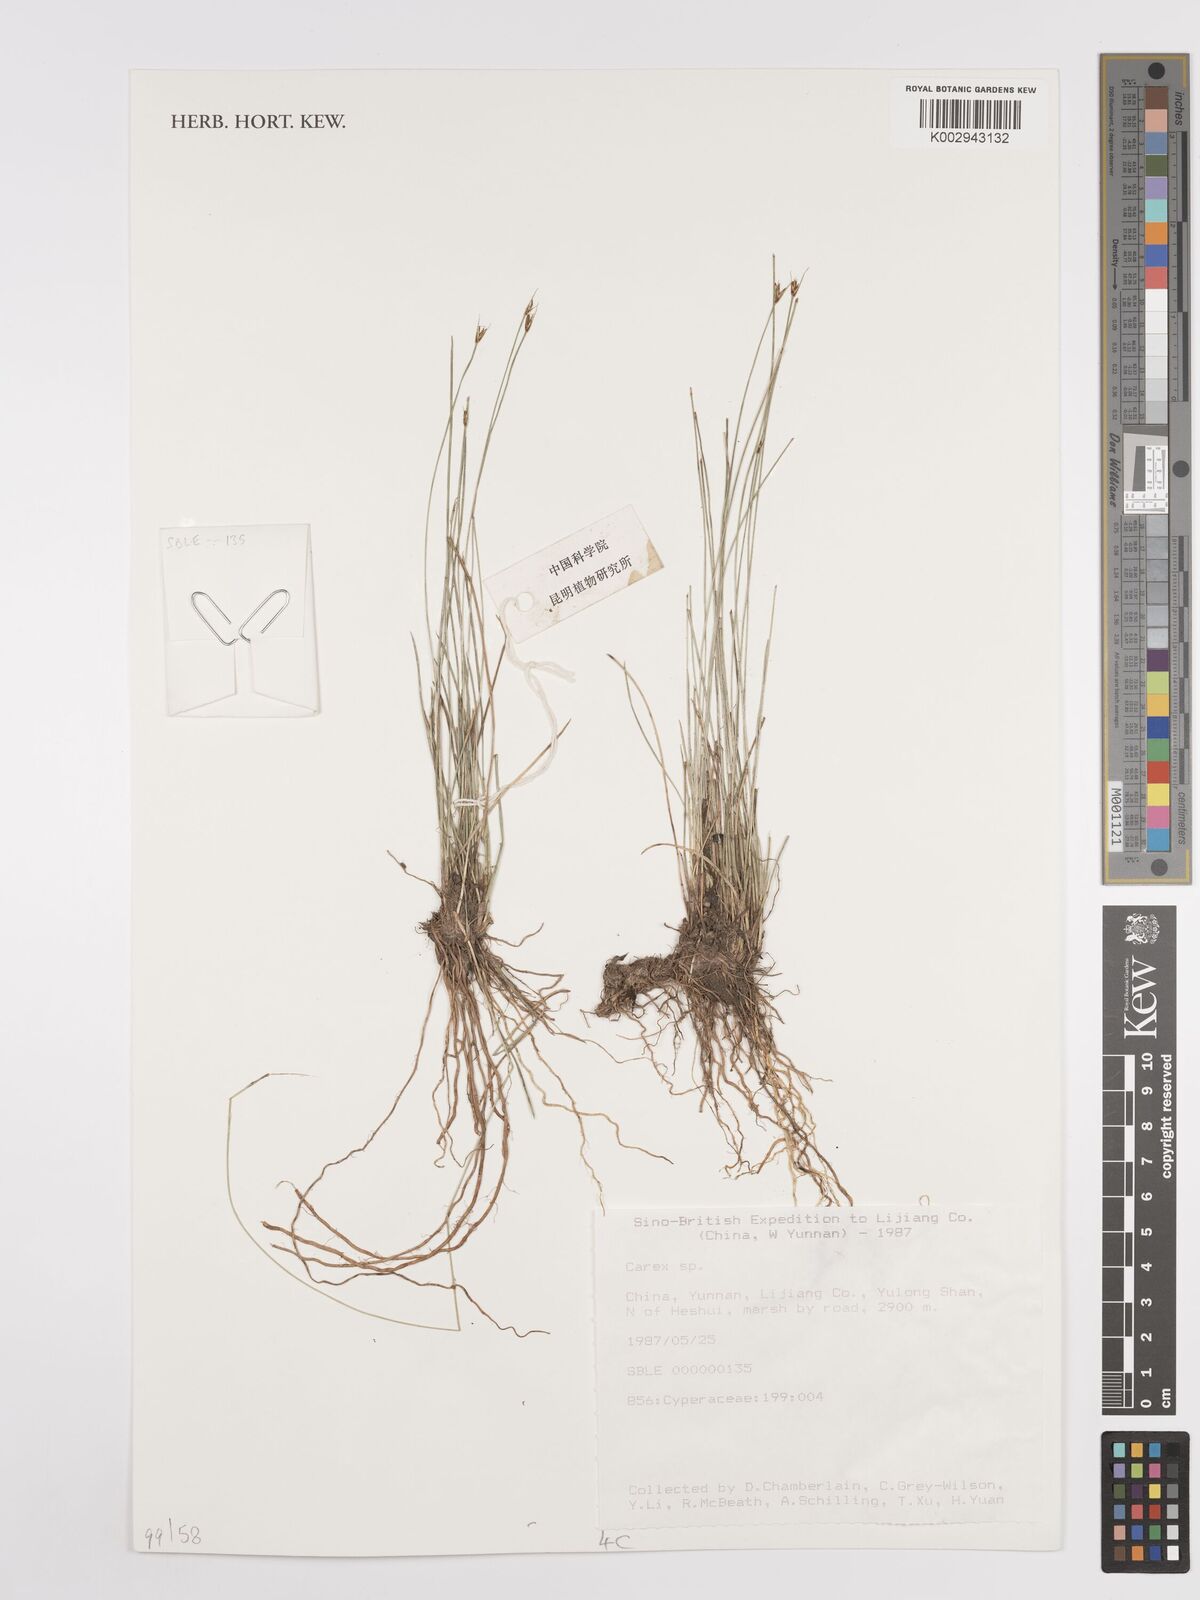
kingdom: Plantae
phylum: Tracheophyta
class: Liliopsida
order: Poales
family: Cyperaceae
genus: Carex
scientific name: Carex
